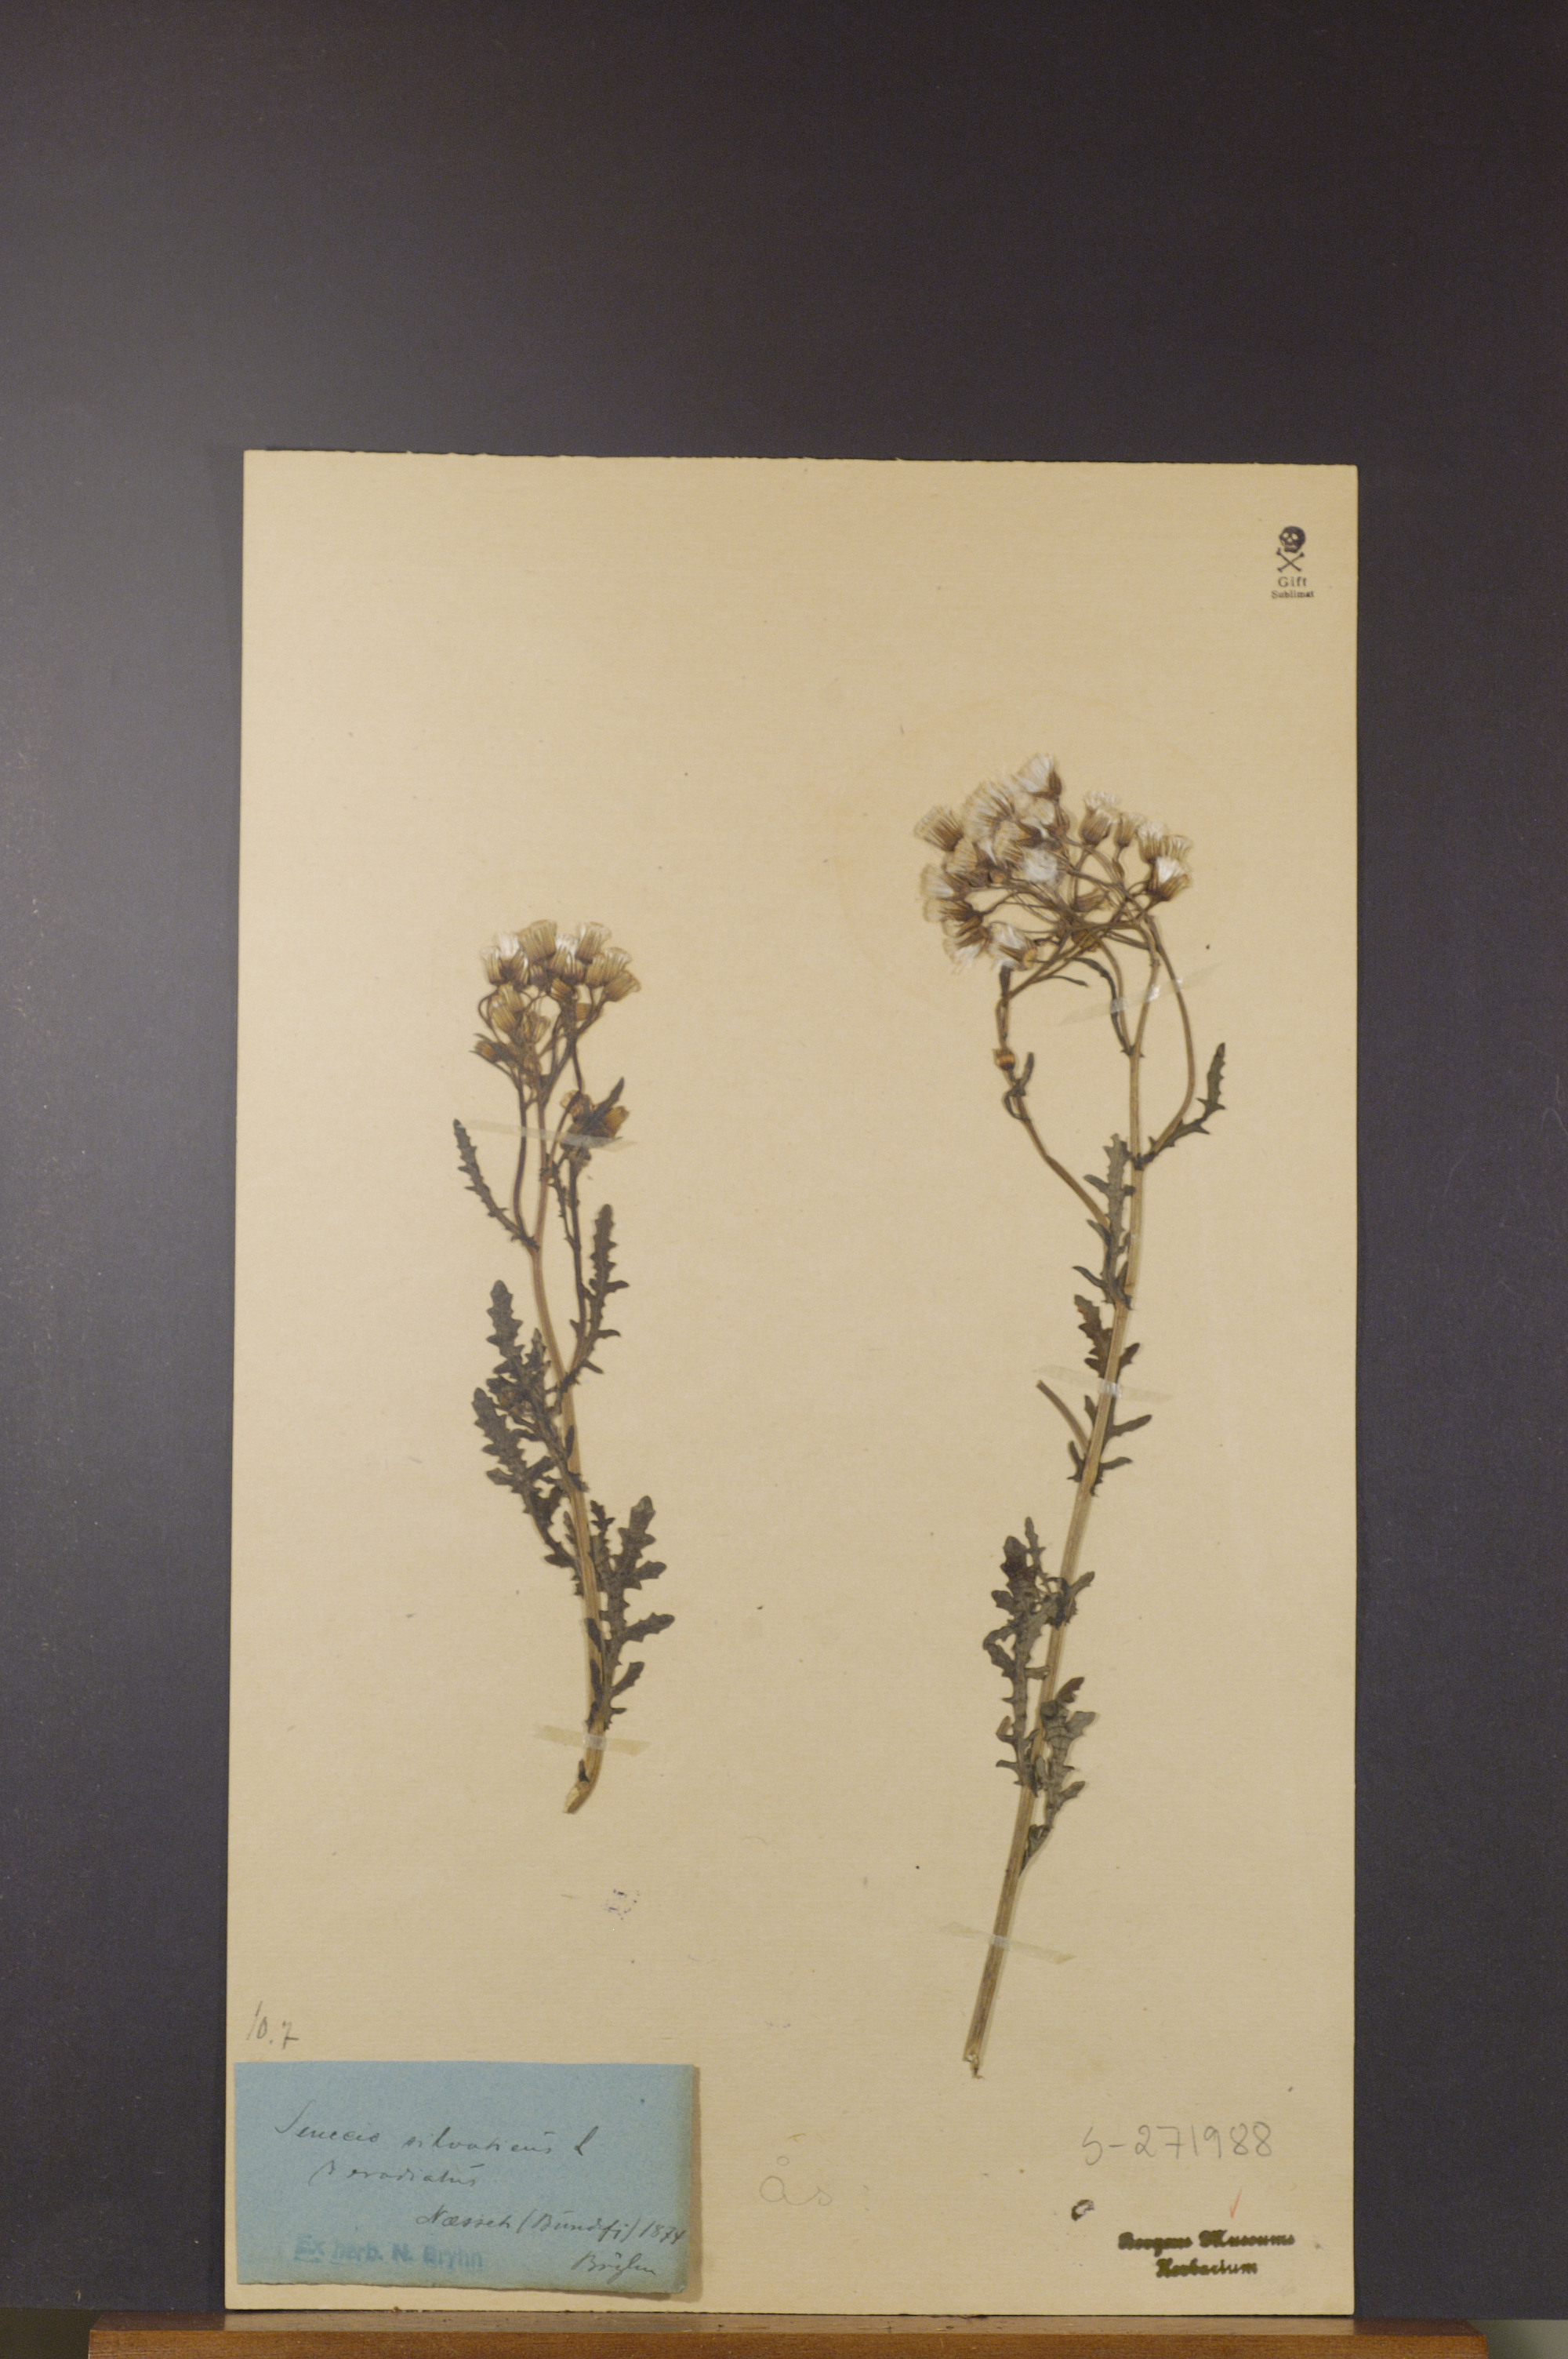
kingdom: Plantae
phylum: Tracheophyta
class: Magnoliopsida
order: Asterales
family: Asteraceae
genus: Senecio
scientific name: Senecio sylvaticus
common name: Woodland ragwort
